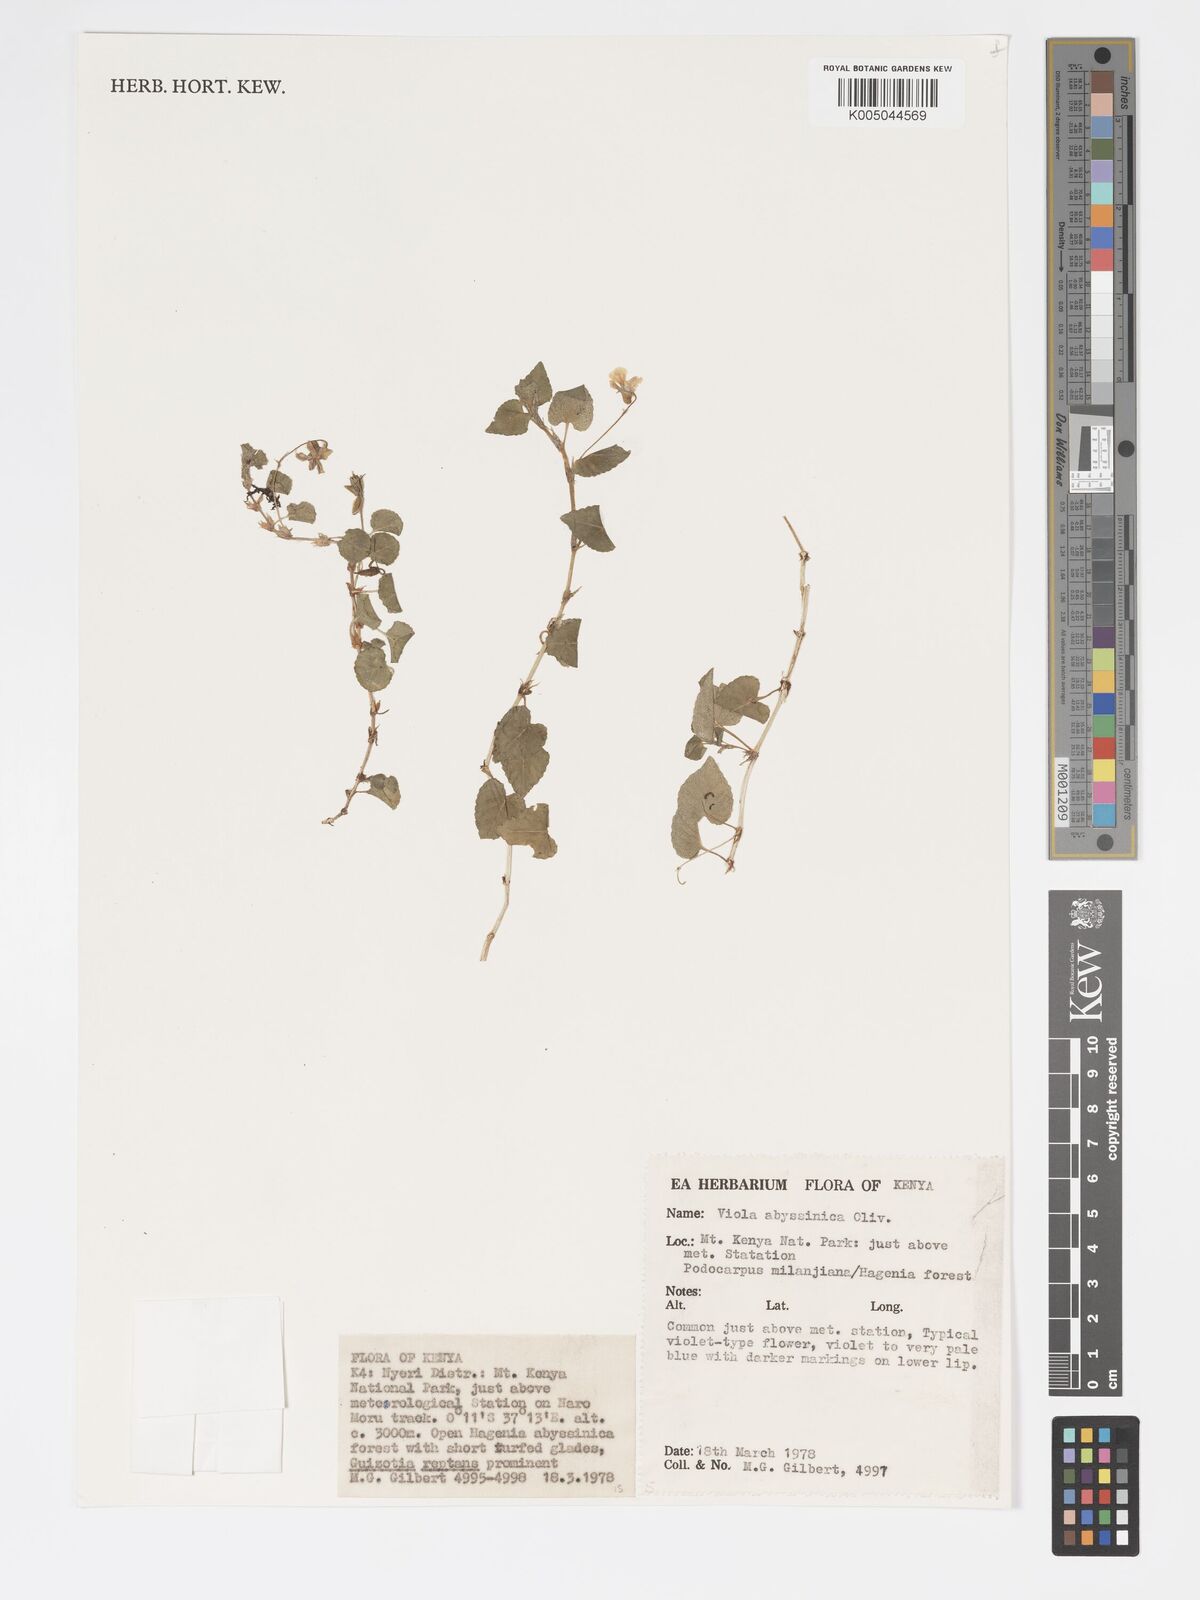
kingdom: Plantae
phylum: Tracheophyta
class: Magnoliopsida
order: Malpighiales
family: Violaceae
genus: Viola
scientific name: Viola abyssinica
